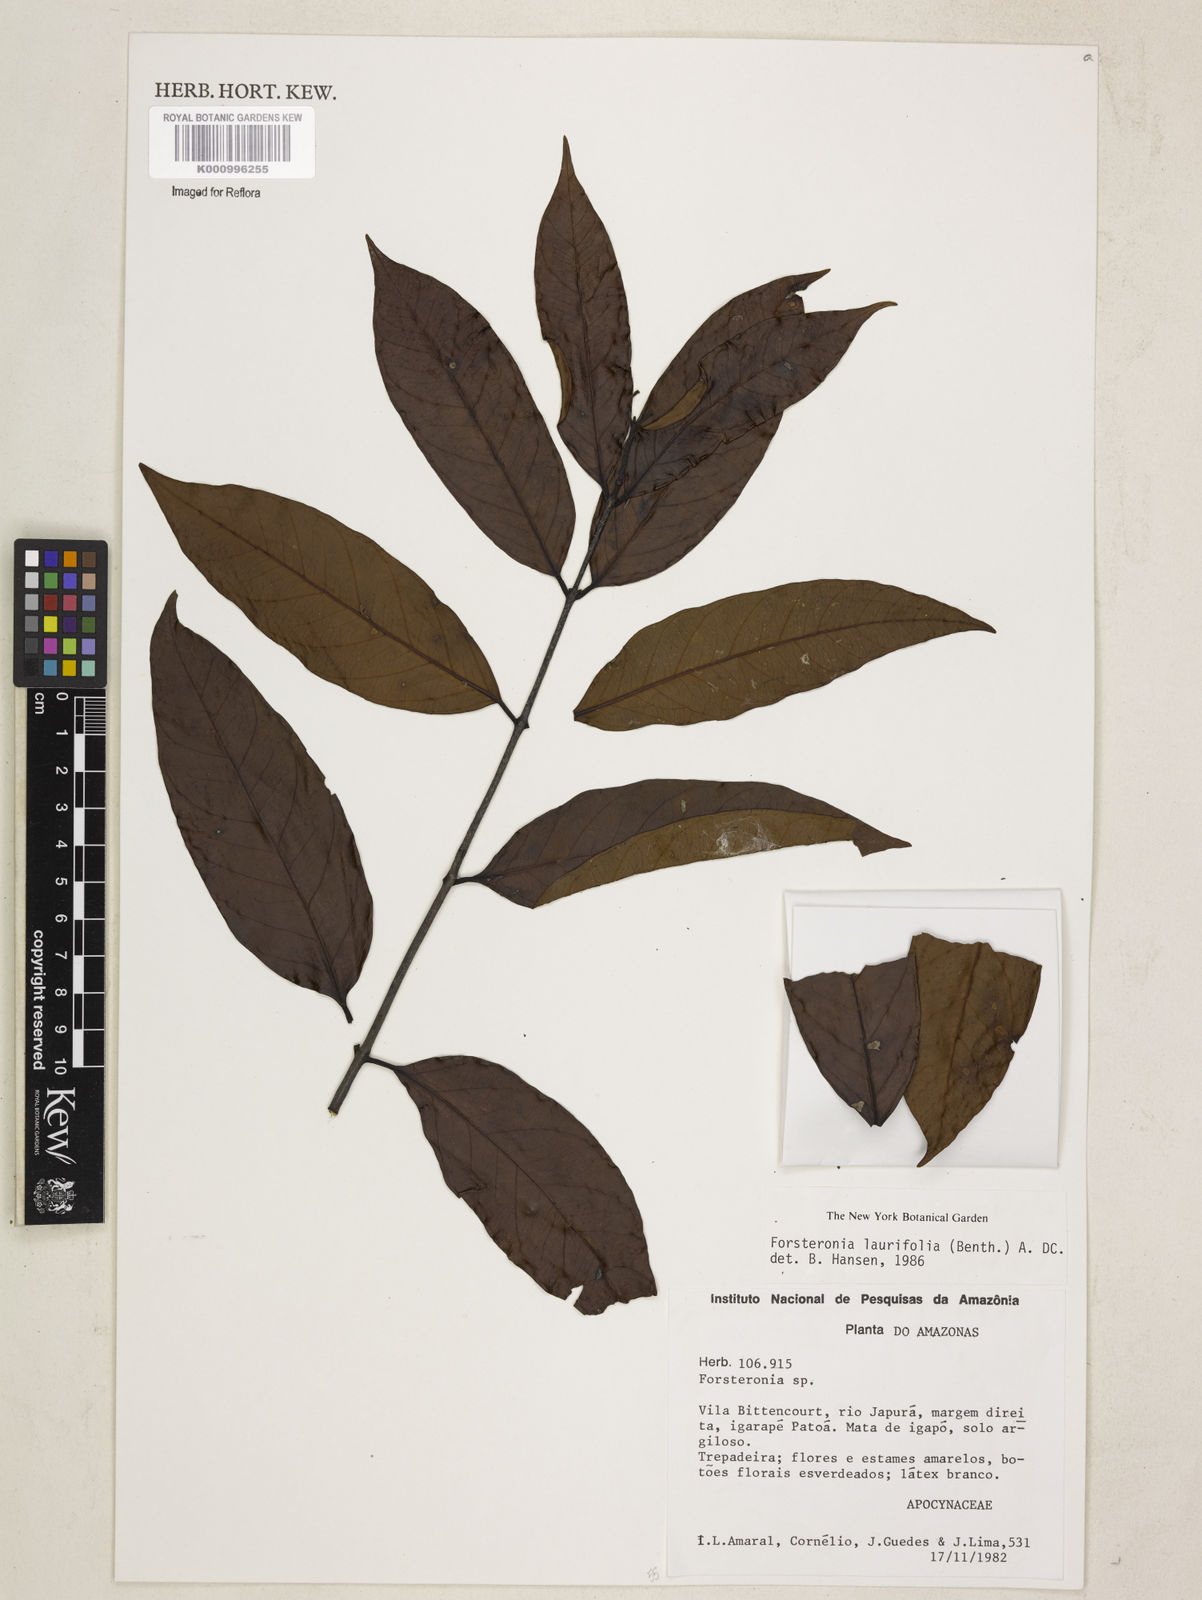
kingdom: Plantae
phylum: Tracheophyta
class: Magnoliopsida
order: Gentianales
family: Apocynaceae
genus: Forsteronia
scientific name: Forsteronia laurifolia
